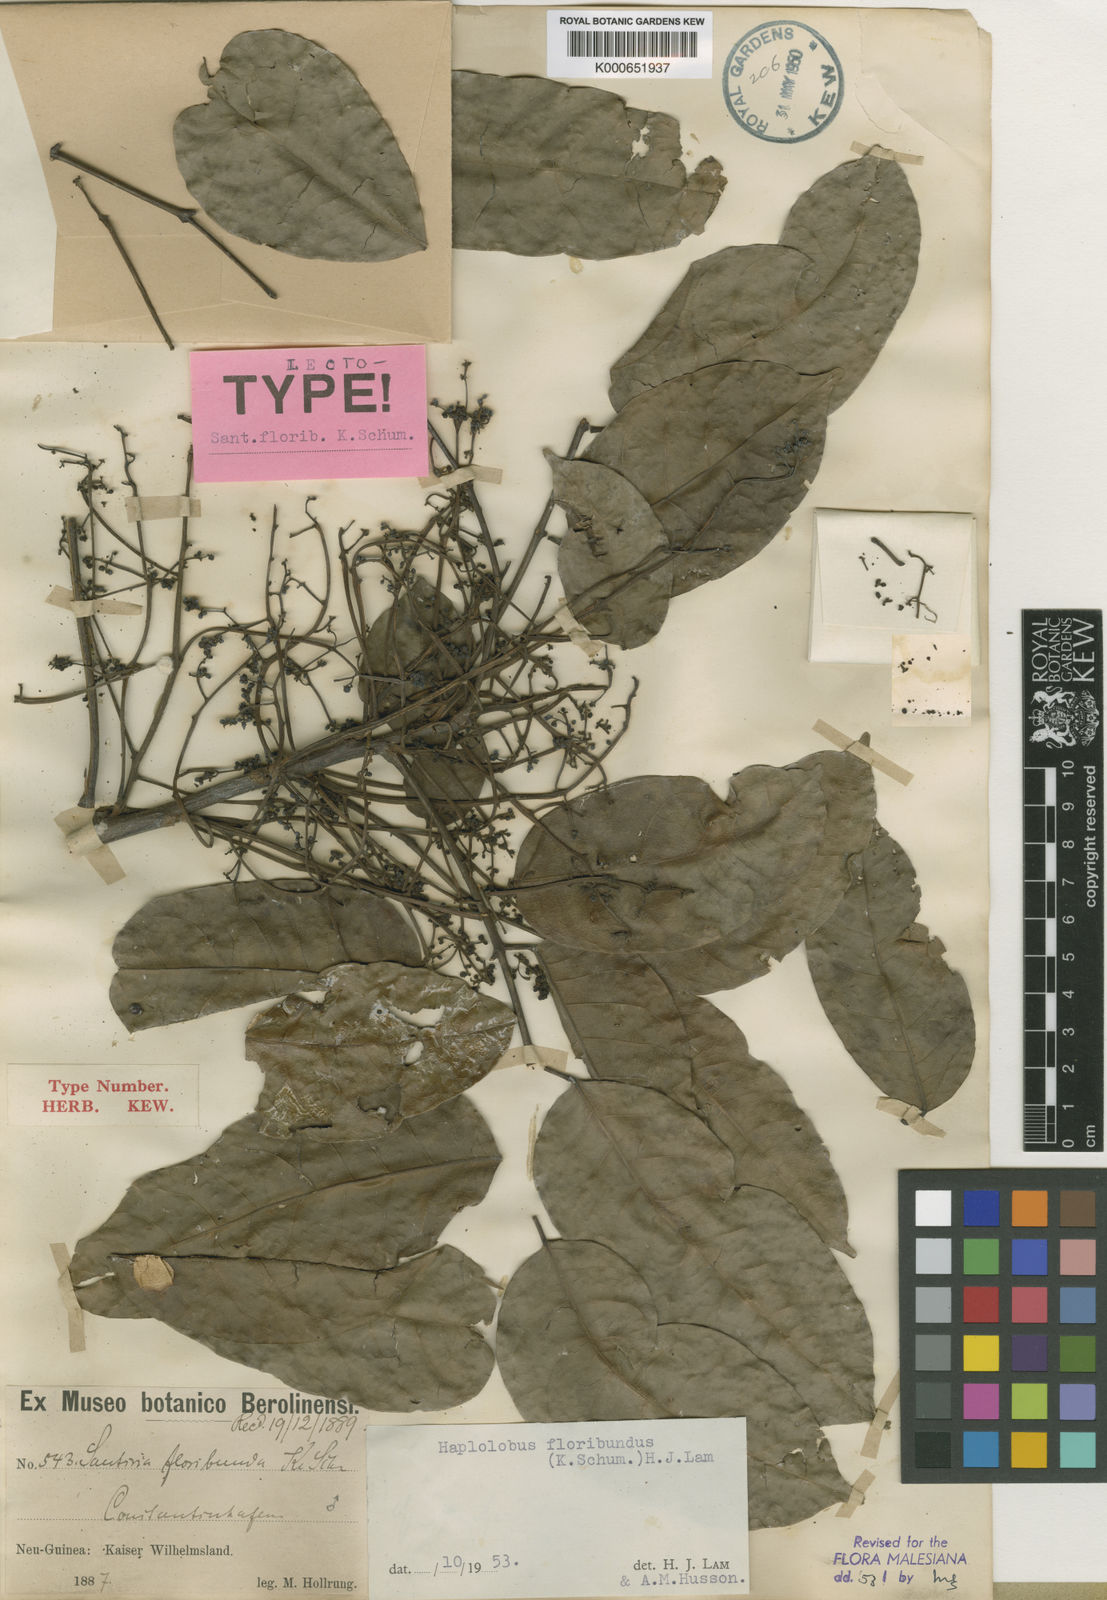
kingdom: Plantae
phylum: Tracheophyta
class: Magnoliopsida
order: Sapindales
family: Burseraceae
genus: Haplolobus
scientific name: Haplolobus floribundus
